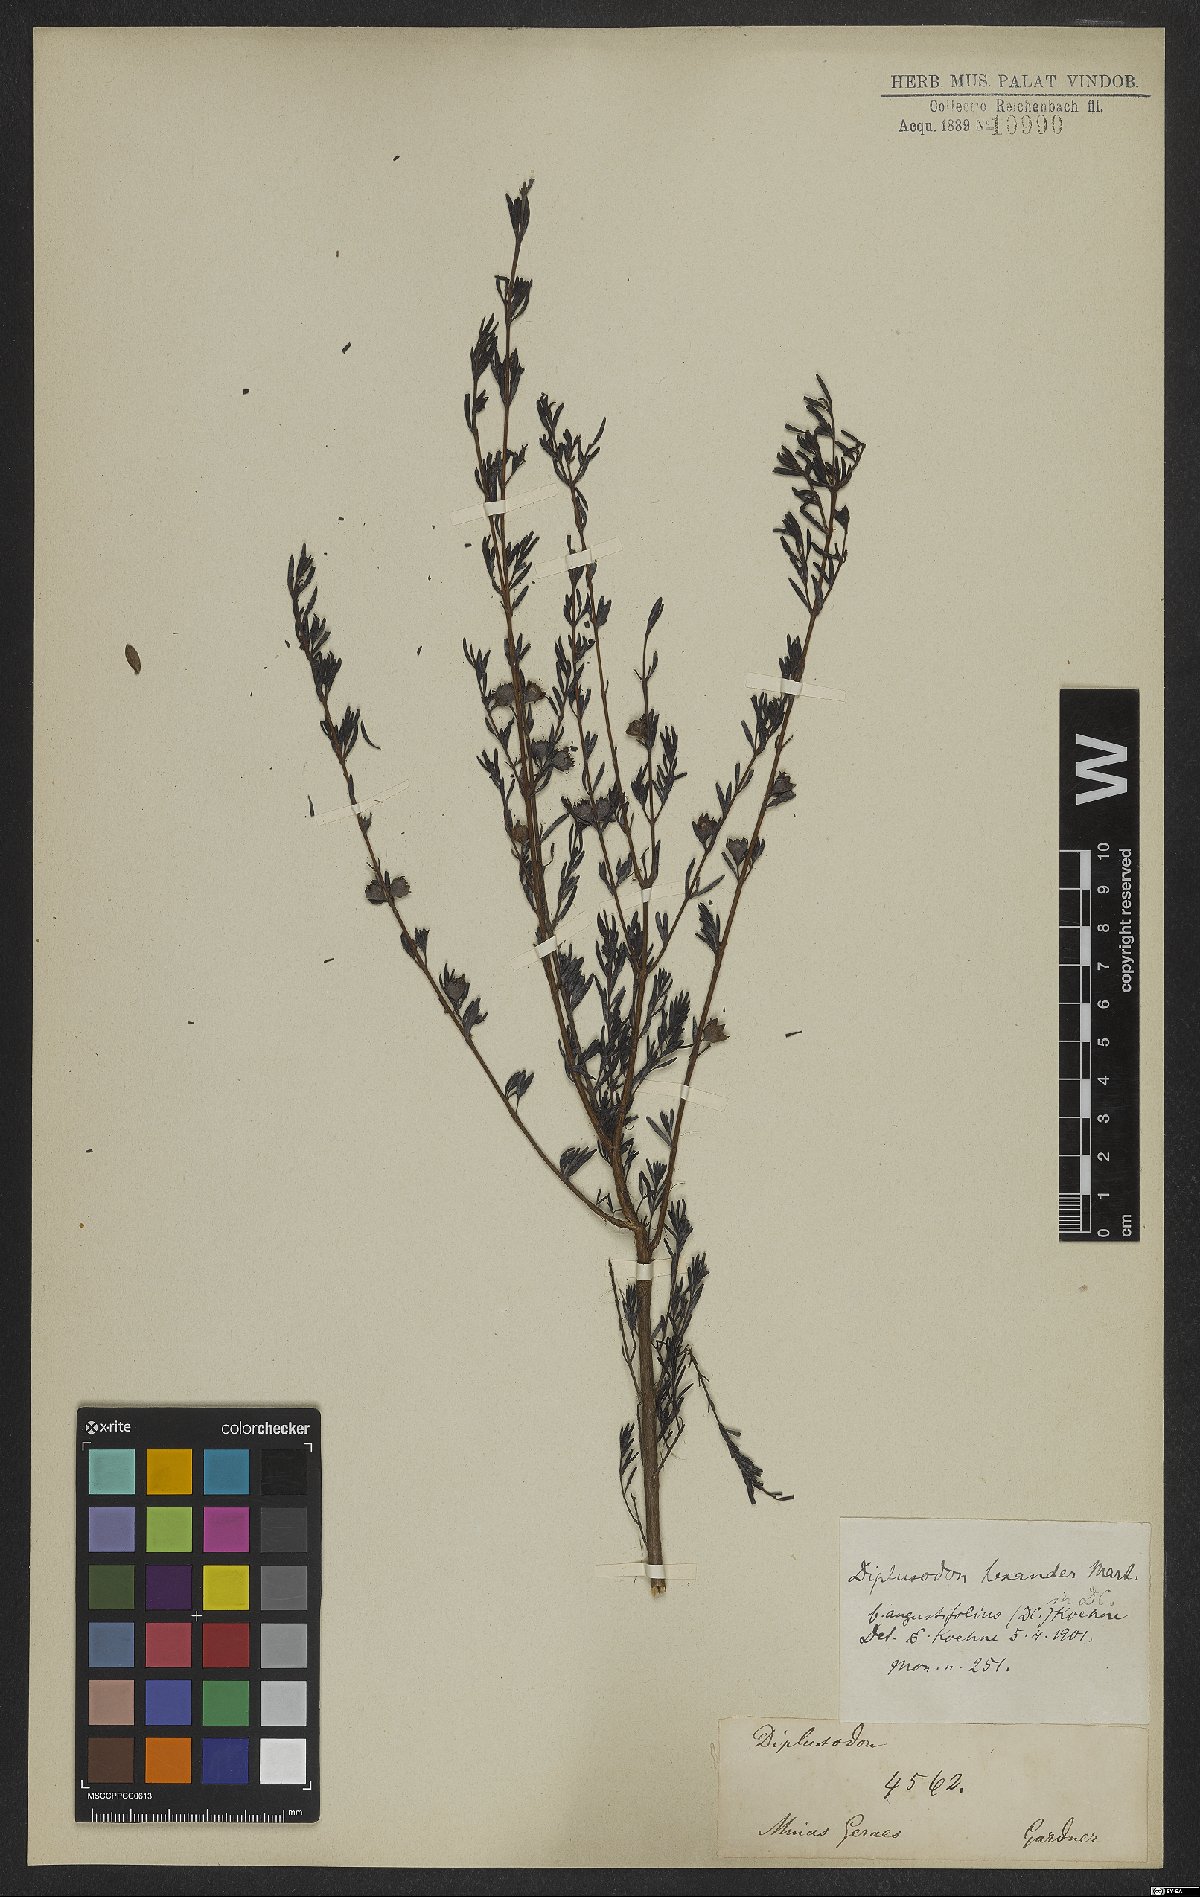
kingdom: Plantae
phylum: Tracheophyta
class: Magnoliopsida
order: Myrtales
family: Lythraceae
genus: Diplusodon
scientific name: Diplusodon hexander
